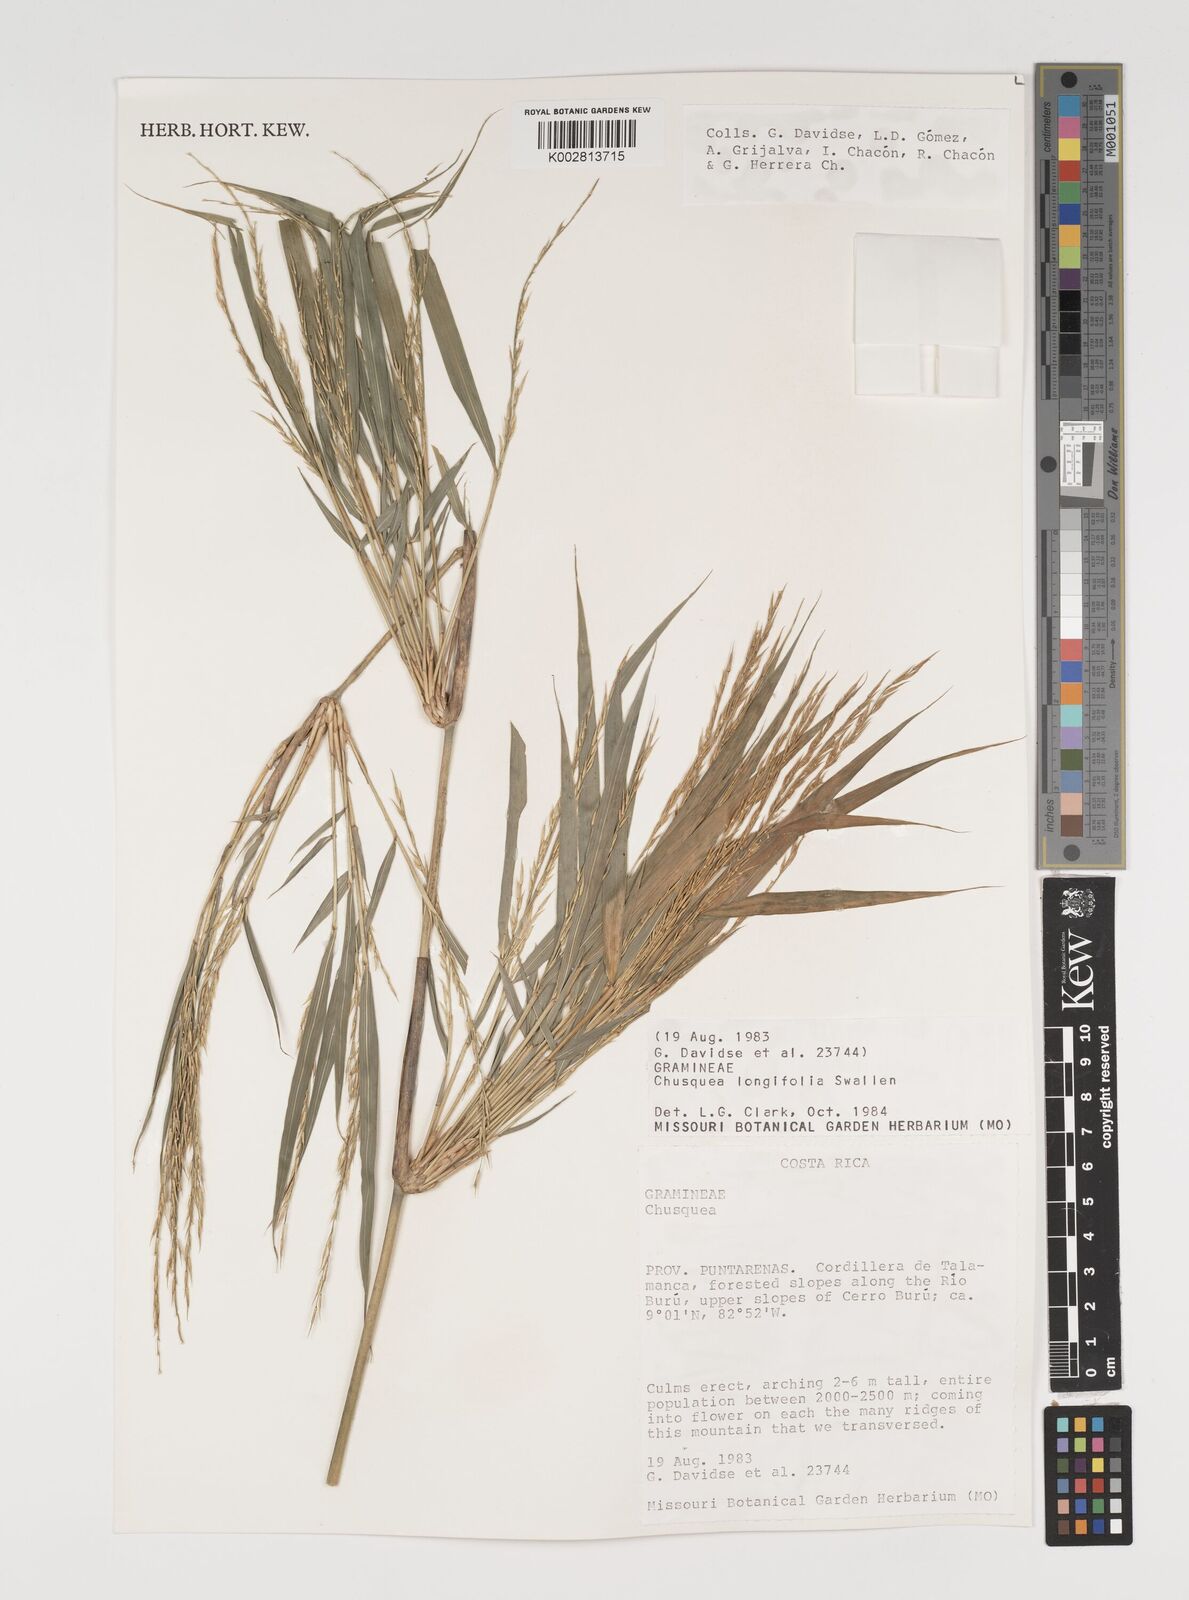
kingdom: Plantae
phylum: Tracheophyta
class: Liliopsida
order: Poales
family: Poaceae
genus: Chusquea
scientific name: Chusquea longifolia
